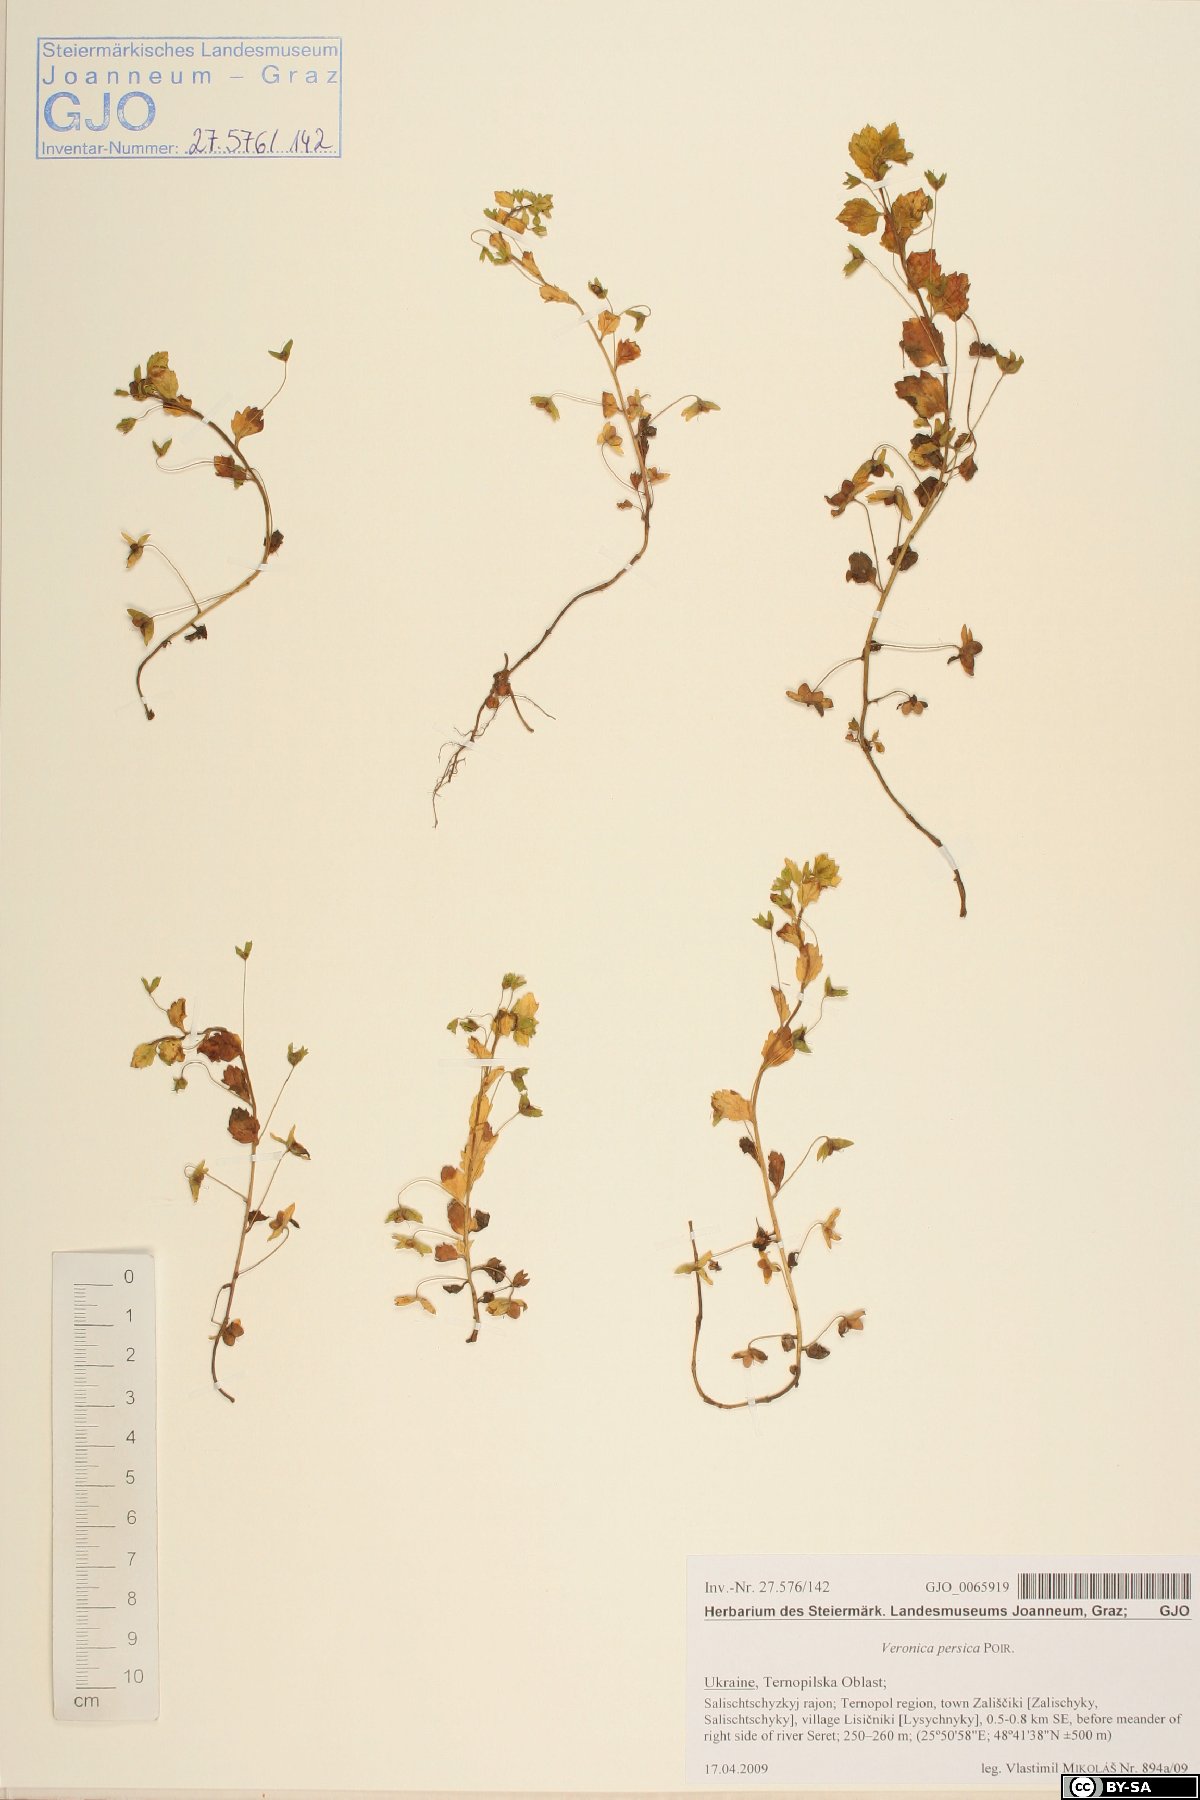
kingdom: Plantae
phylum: Tracheophyta
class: Magnoliopsida
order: Lamiales
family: Plantaginaceae
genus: Veronica
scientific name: Veronica persica
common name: Common field-speedwell
